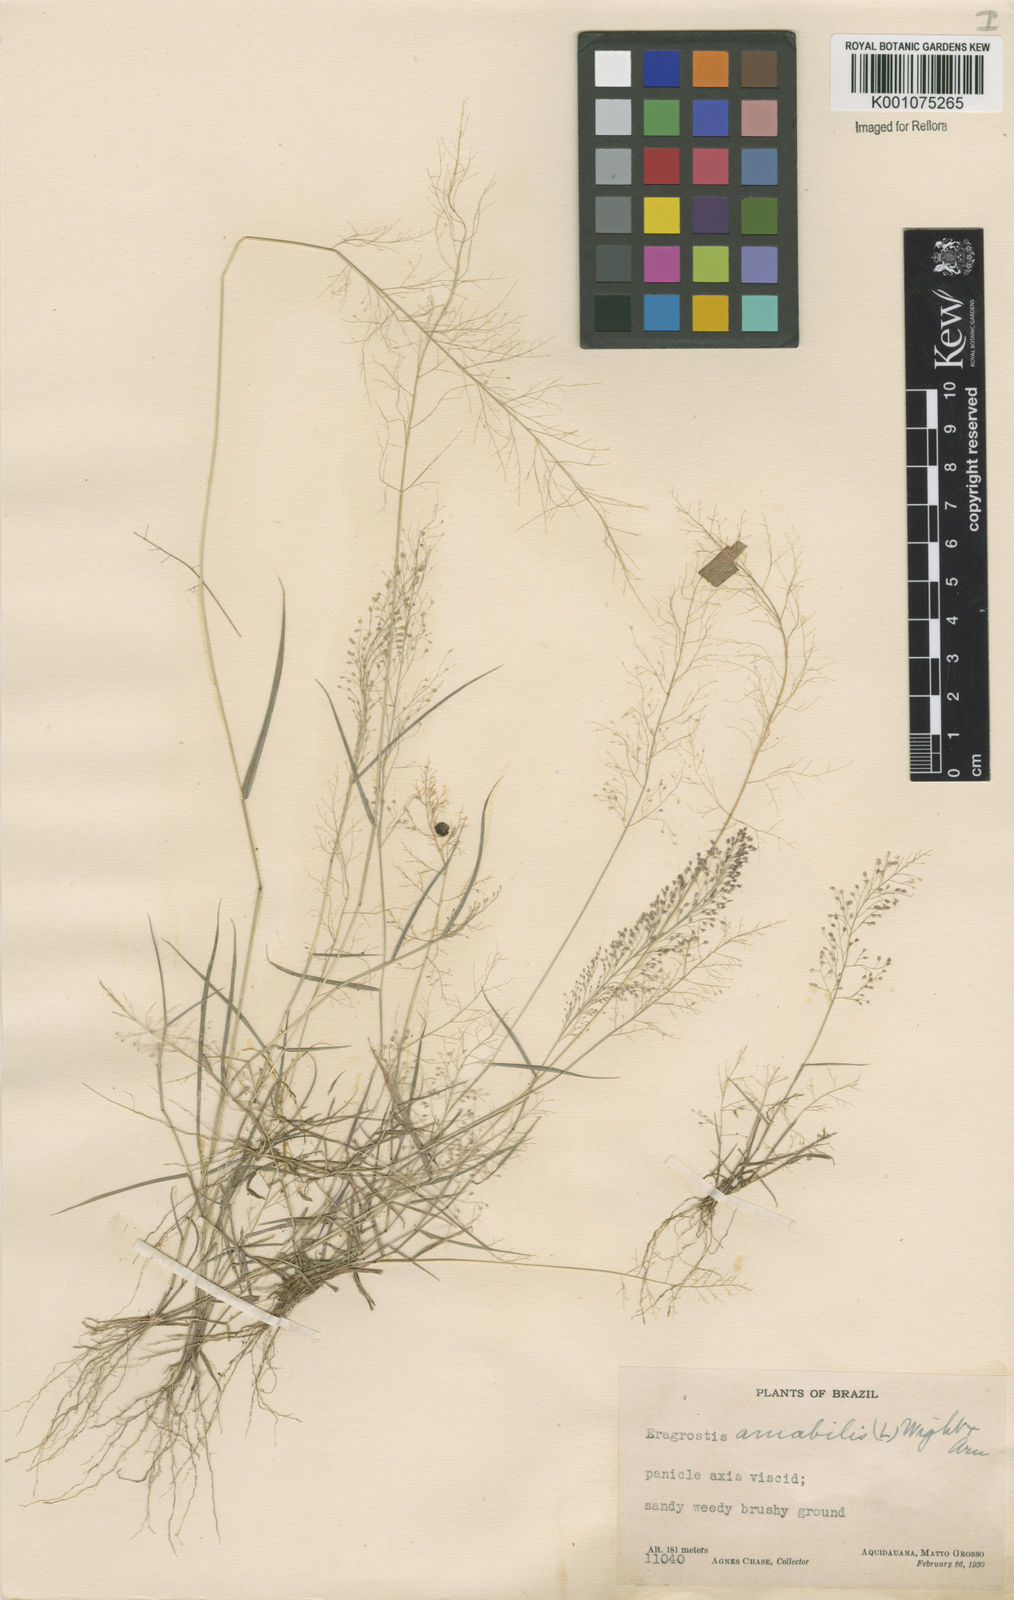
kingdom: Plantae
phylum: Tracheophyta
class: Liliopsida
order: Poales
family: Poaceae
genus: Eragrostis
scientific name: Eragrostis tenella
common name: Japanese lovegrass
